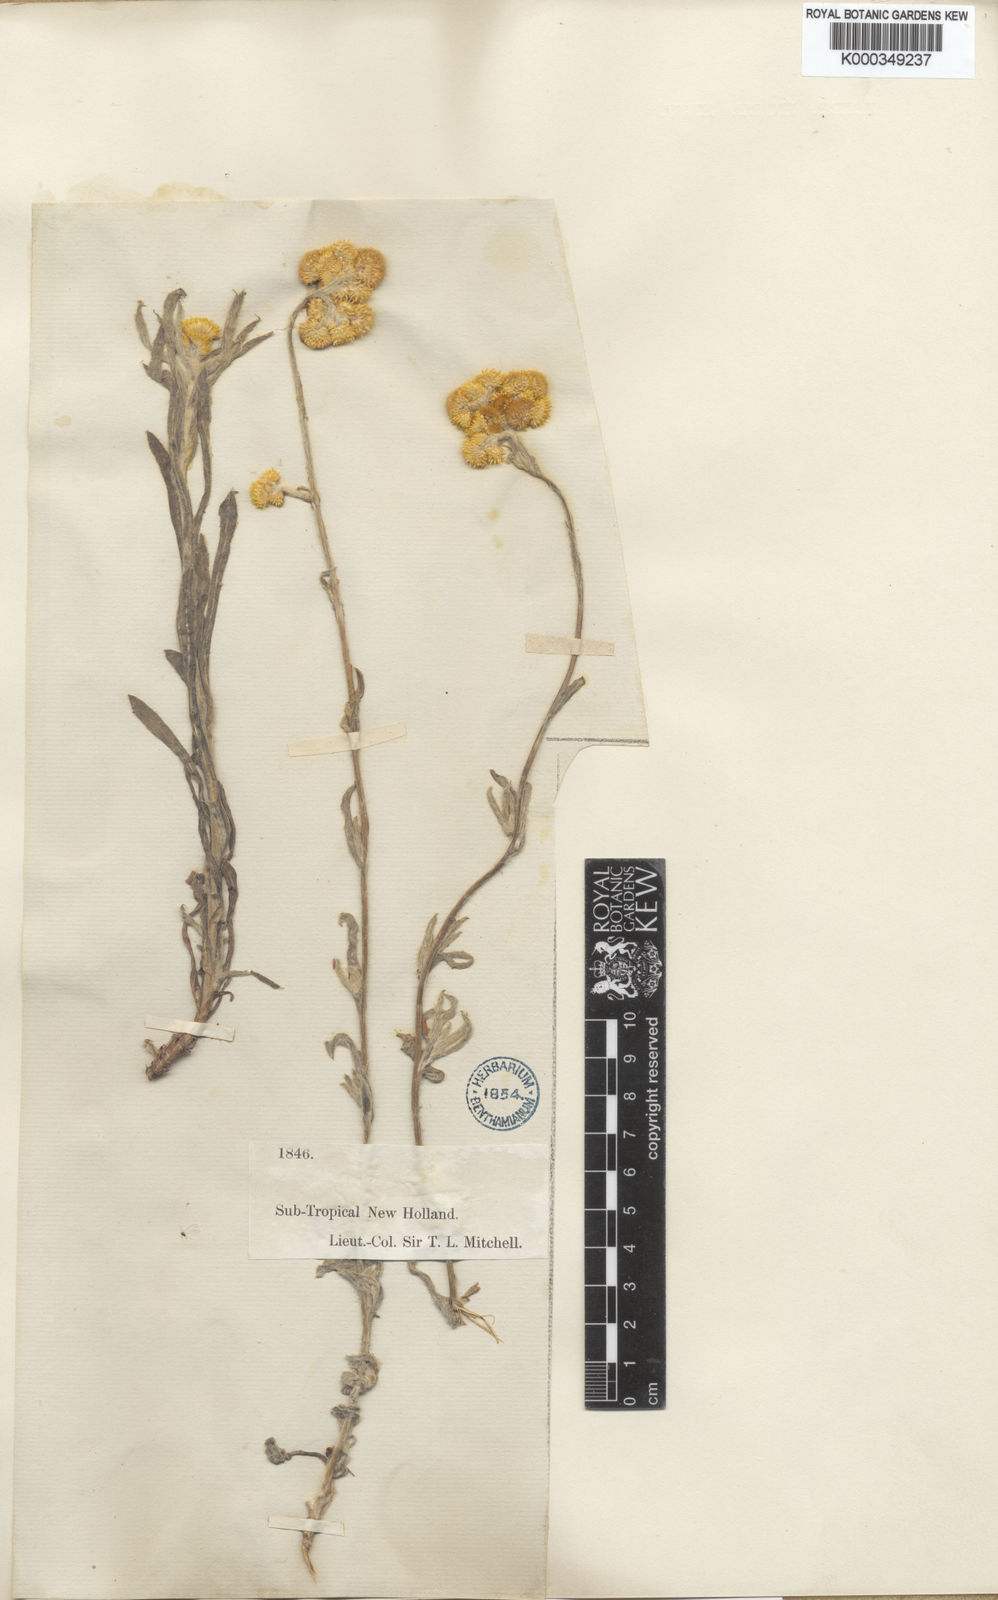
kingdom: Plantae
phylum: Tracheophyta
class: Magnoliopsida
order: Asterales
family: Asteraceae
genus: Chrysocephalum
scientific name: Chrysocephalum apiculatum
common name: Common everlasting
